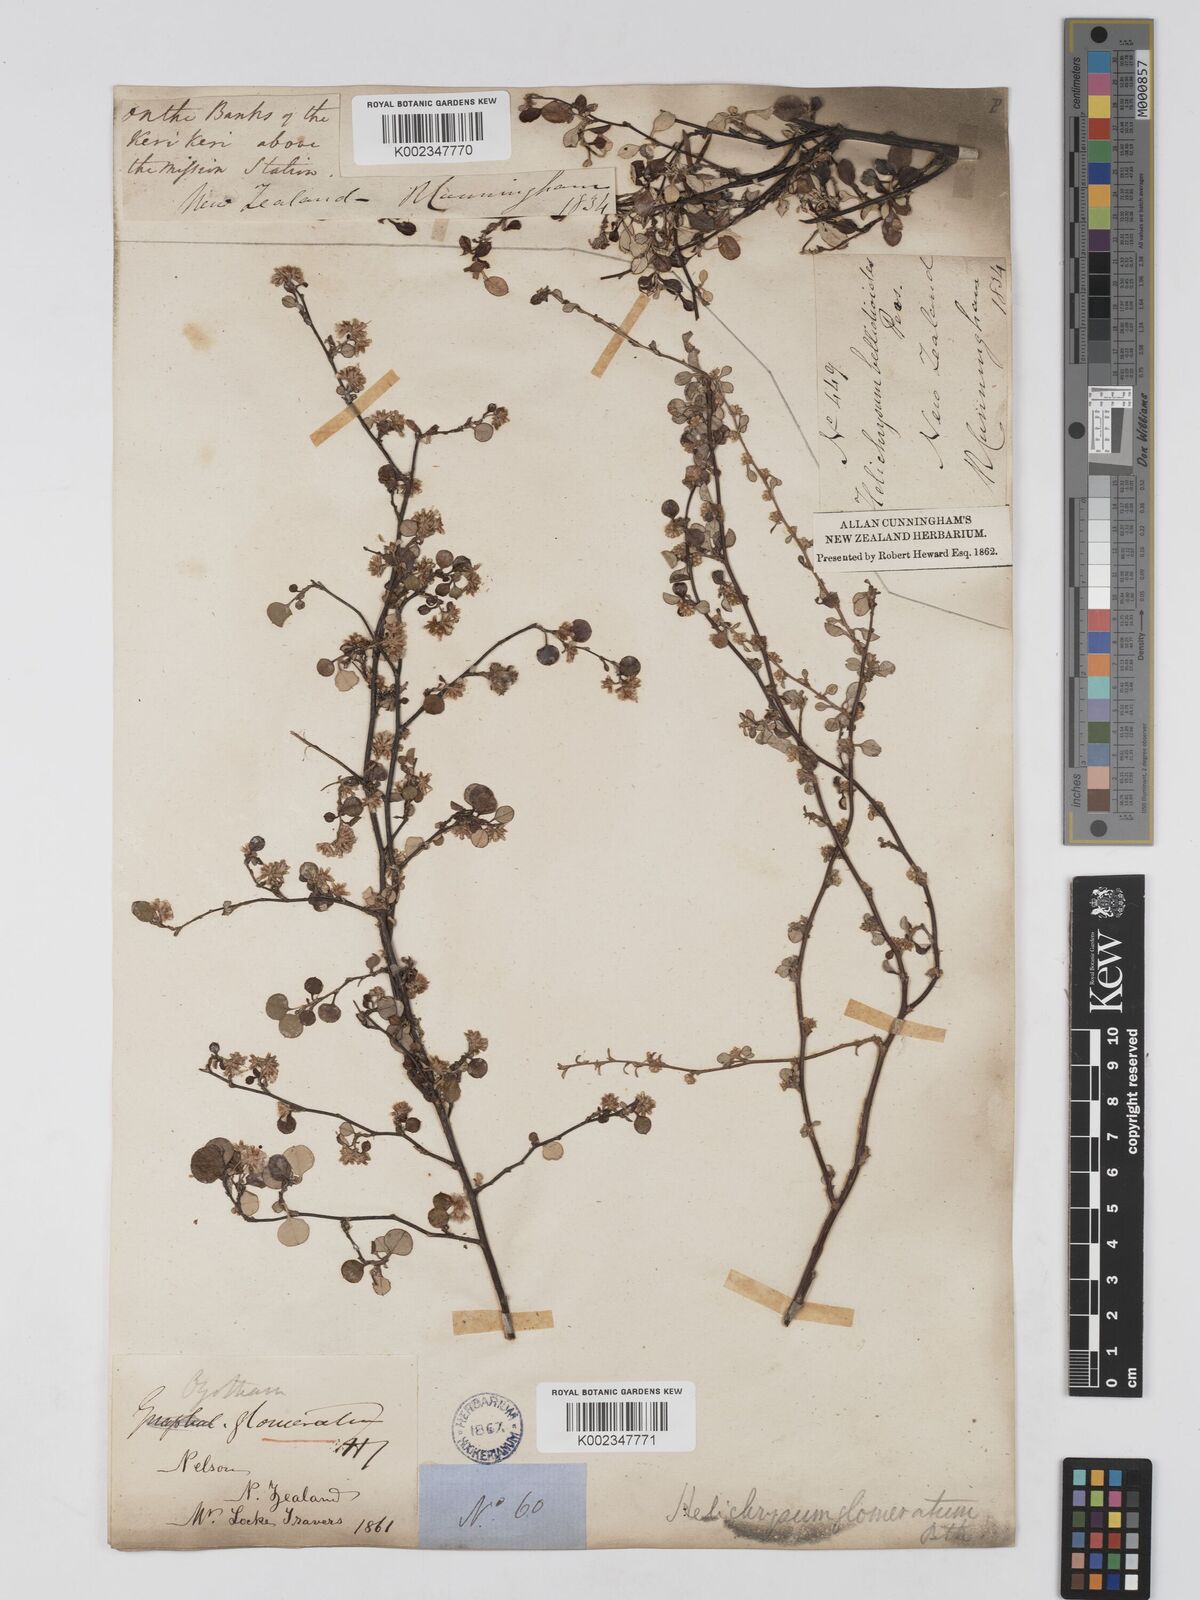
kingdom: Plantae
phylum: Tracheophyta
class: Magnoliopsida
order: Asterales
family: Asteraceae
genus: Ozothamnus
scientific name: Ozothamnus glomeratus
